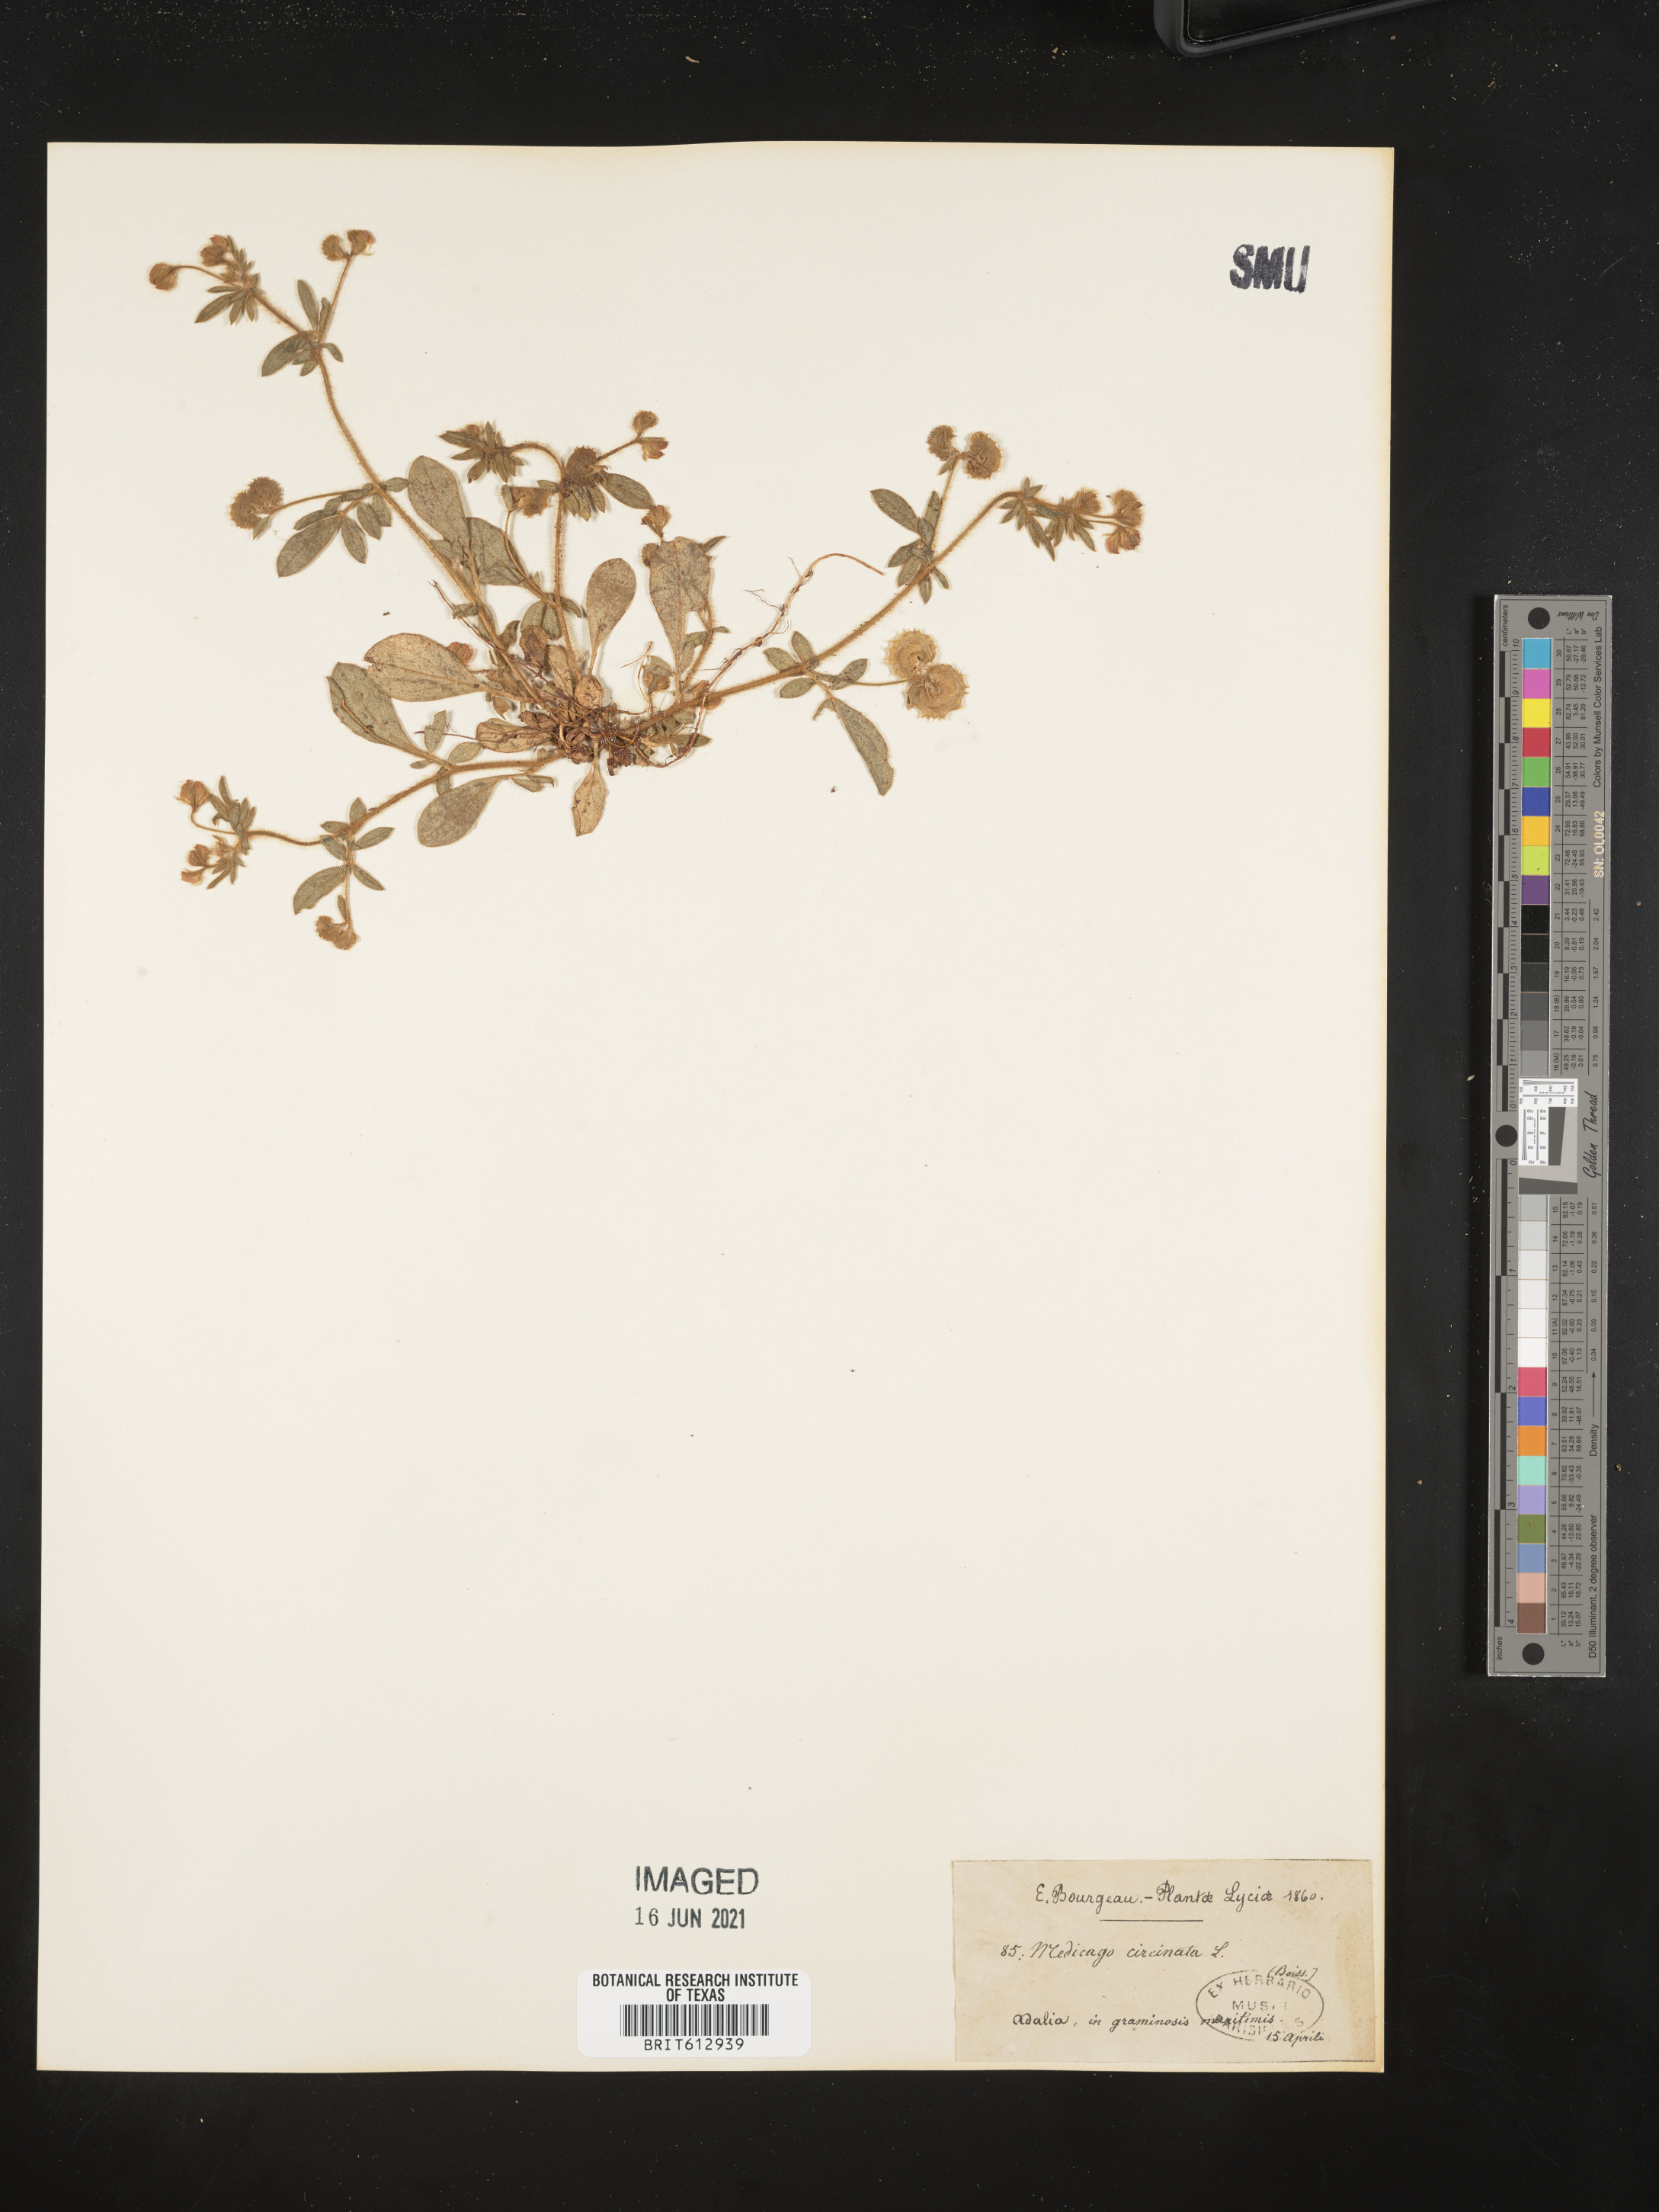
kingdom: Plantae
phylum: Tracheophyta
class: Magnoliopsida
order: Fabales
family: Fabaceae
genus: Anthyllis
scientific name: Anthyllis circinnata
